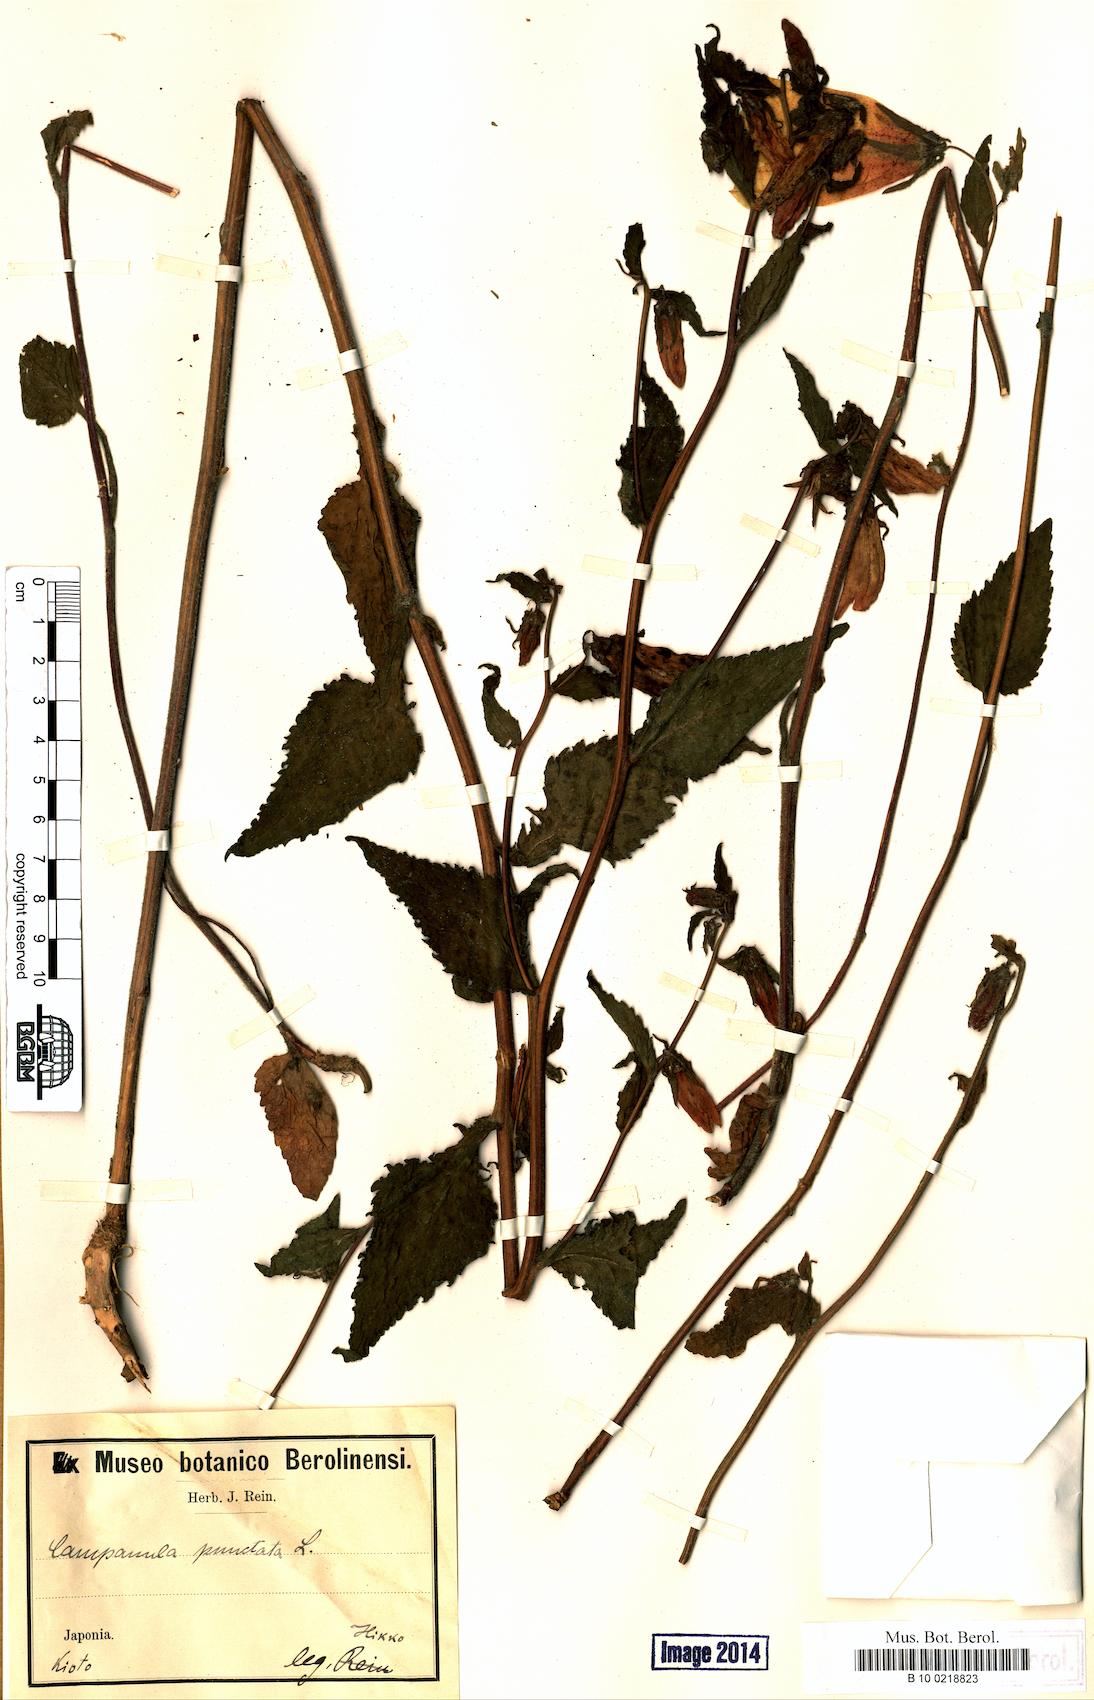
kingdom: Plantae
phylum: Tracheophyta
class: Magnoliopsida
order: Asterales
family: Campanulaceae
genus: Campanula
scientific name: Campanula punctata
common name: Spotted bellflower
